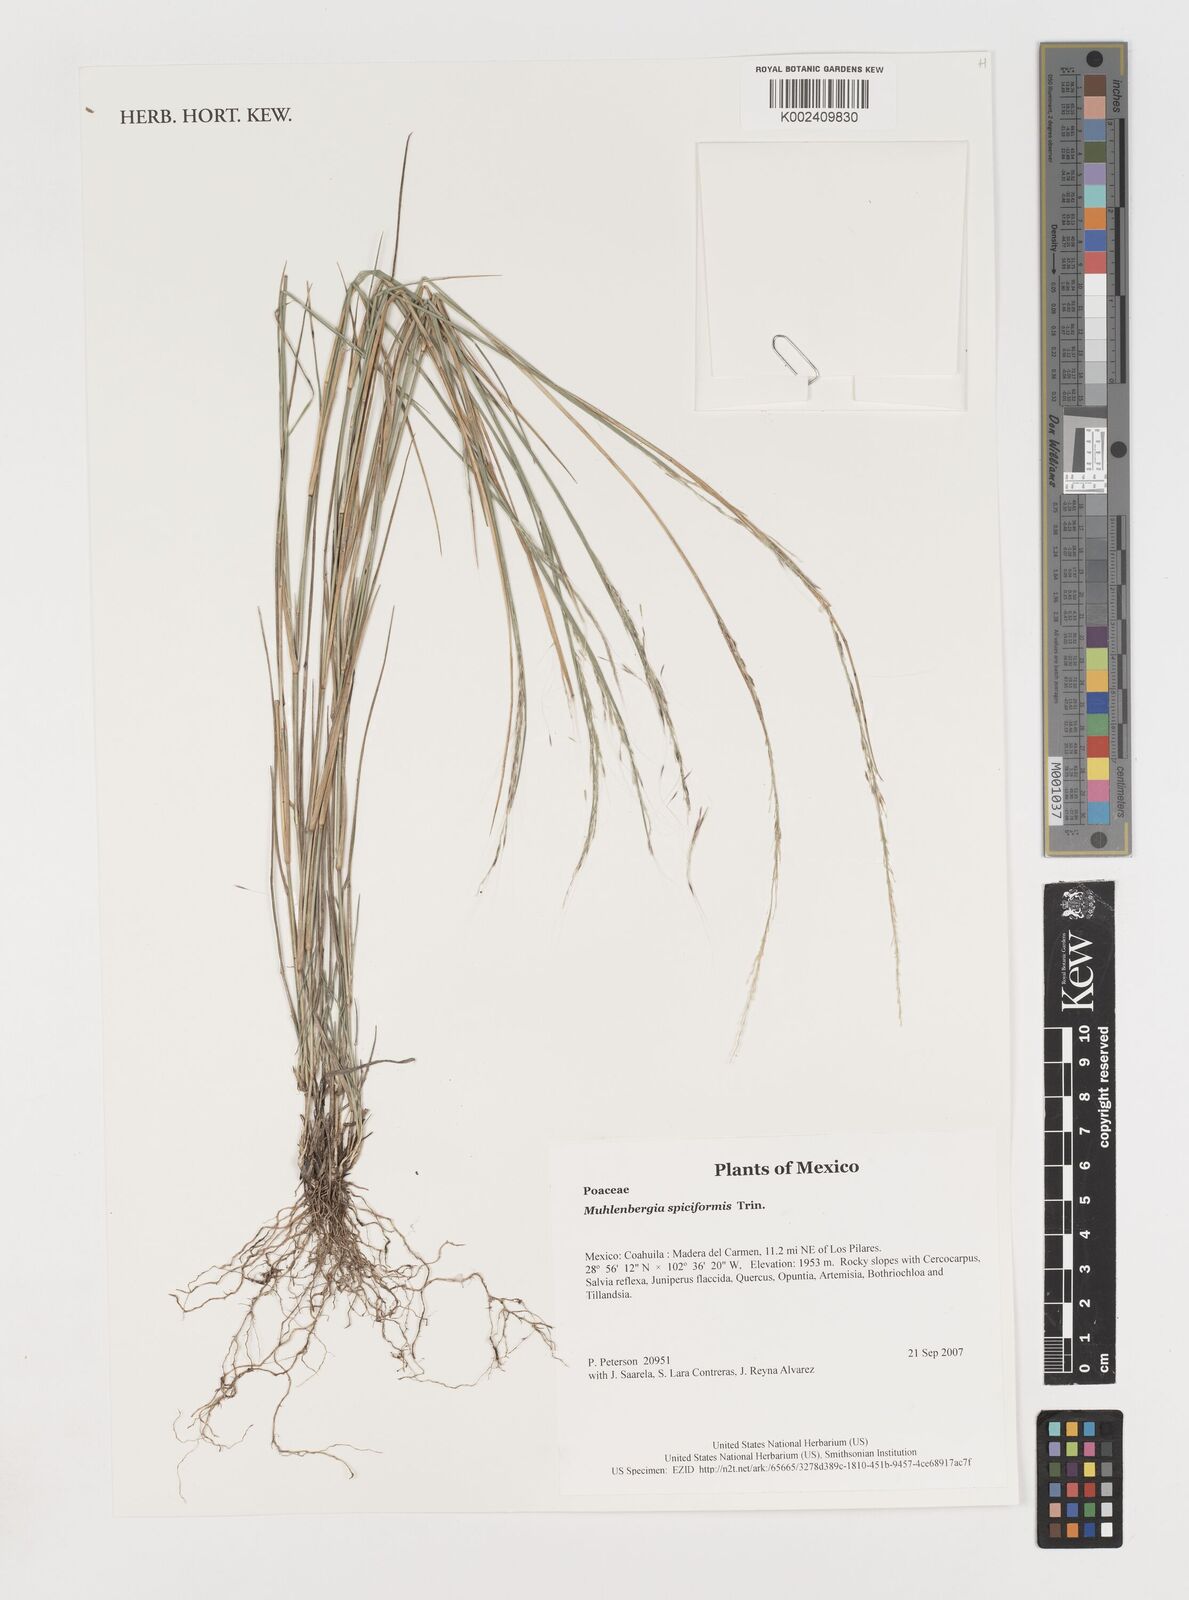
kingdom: Plantae
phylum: Tracheophyta
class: Liliopsida
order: Poales
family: Poaceae
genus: Muhlenbergia
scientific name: Muhlenbergia spiciformis
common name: Longawn muhly
